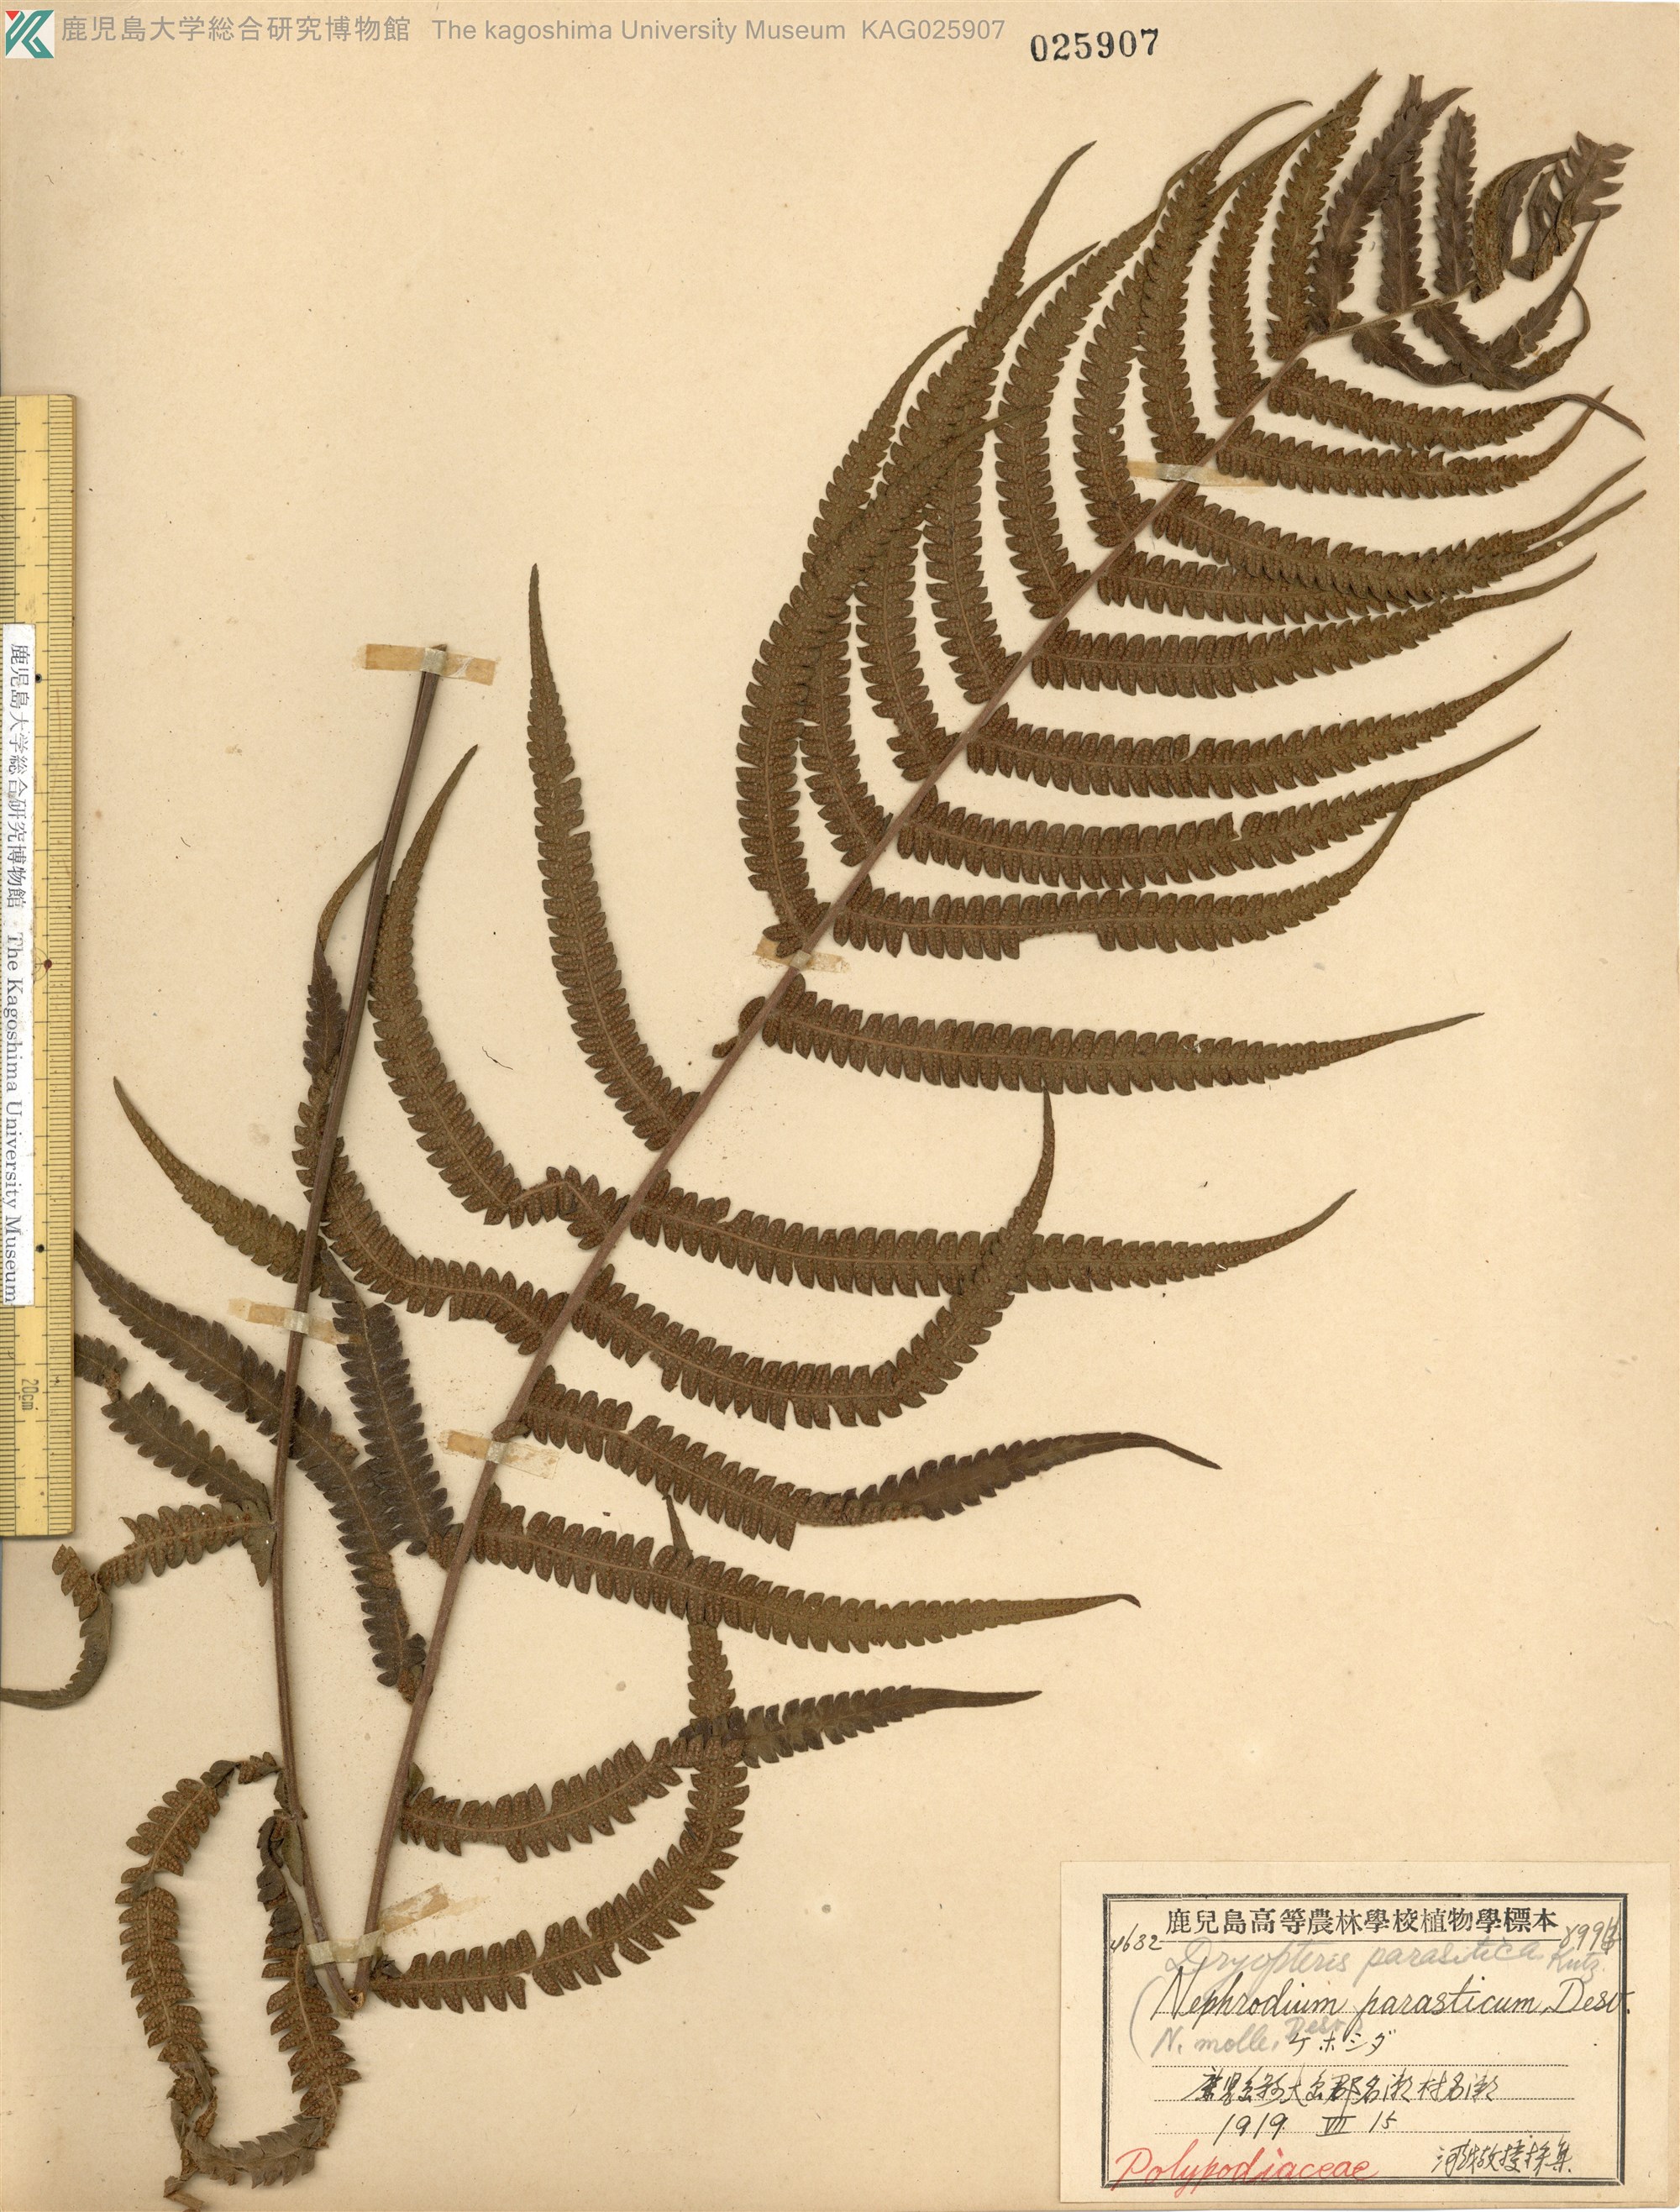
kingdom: Plantae
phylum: Tracheophyta
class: Polypodiopsida
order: Polypodiales
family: Thelypteridaceae
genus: Christella
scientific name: Christella parasitica
